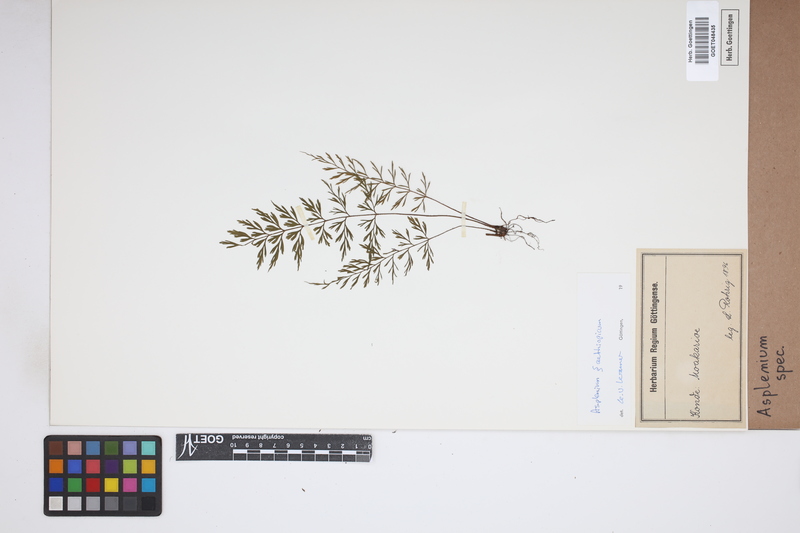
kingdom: Plantae
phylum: Tracheophyta
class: Polypodiopsida
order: Polypodiales
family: Aspleniaceae
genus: Asplenium
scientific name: Asplenium
